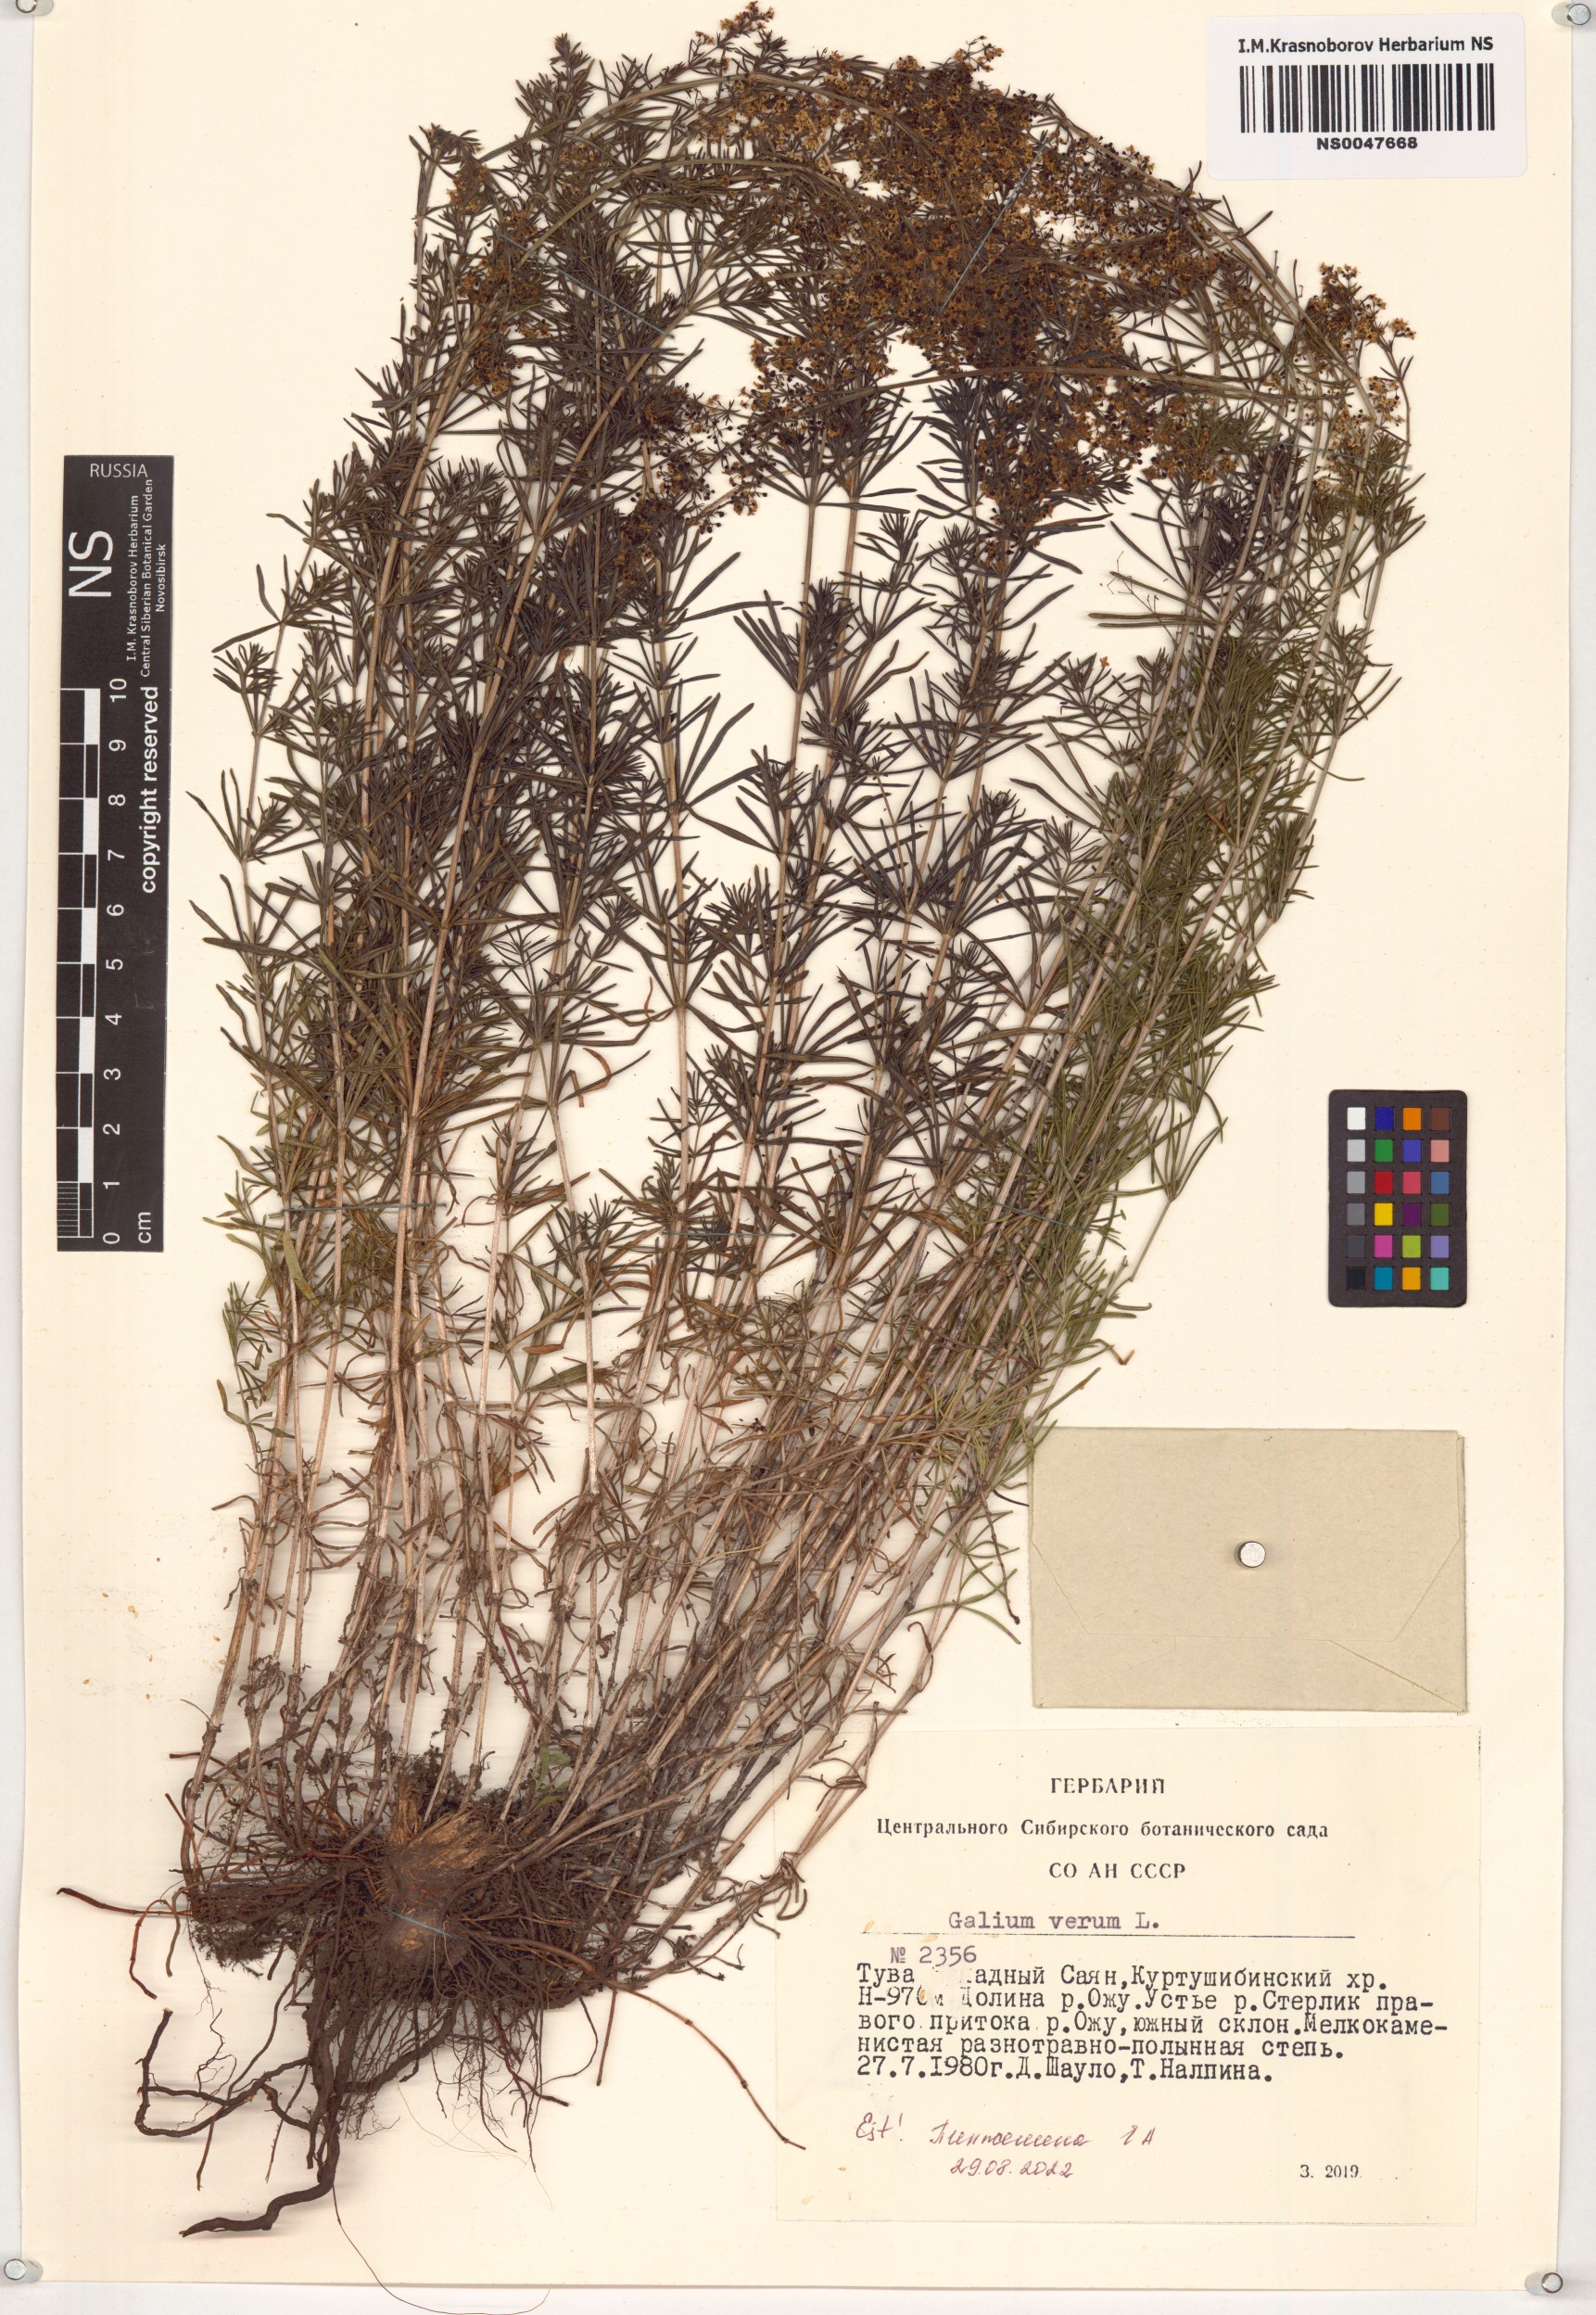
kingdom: Plantae
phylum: Tracheophyta
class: Magnoliopsida
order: Gentianales
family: Rubiaceae
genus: Galium
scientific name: Galium verum
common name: Lady's bedstraw
